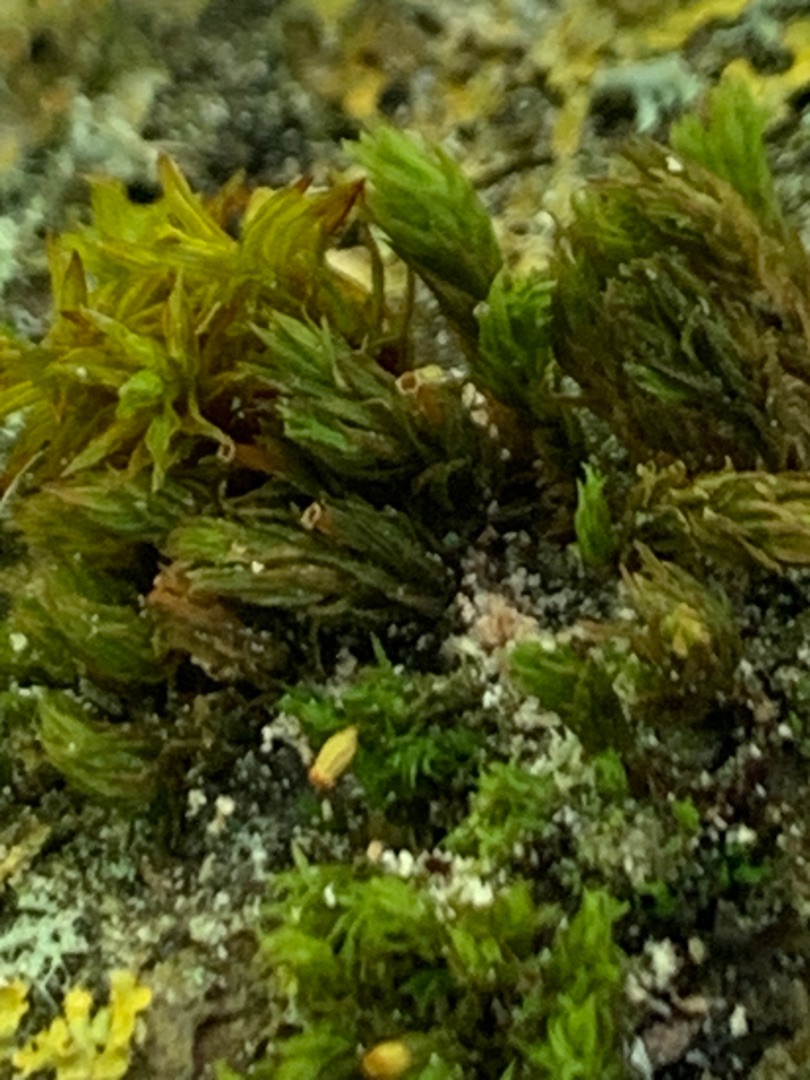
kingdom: Plantae
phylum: Bryophyta
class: Bryopsida
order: Orthotrichales
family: Orthotrichaceae
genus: Orthotrichum
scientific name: Orthotrichum
